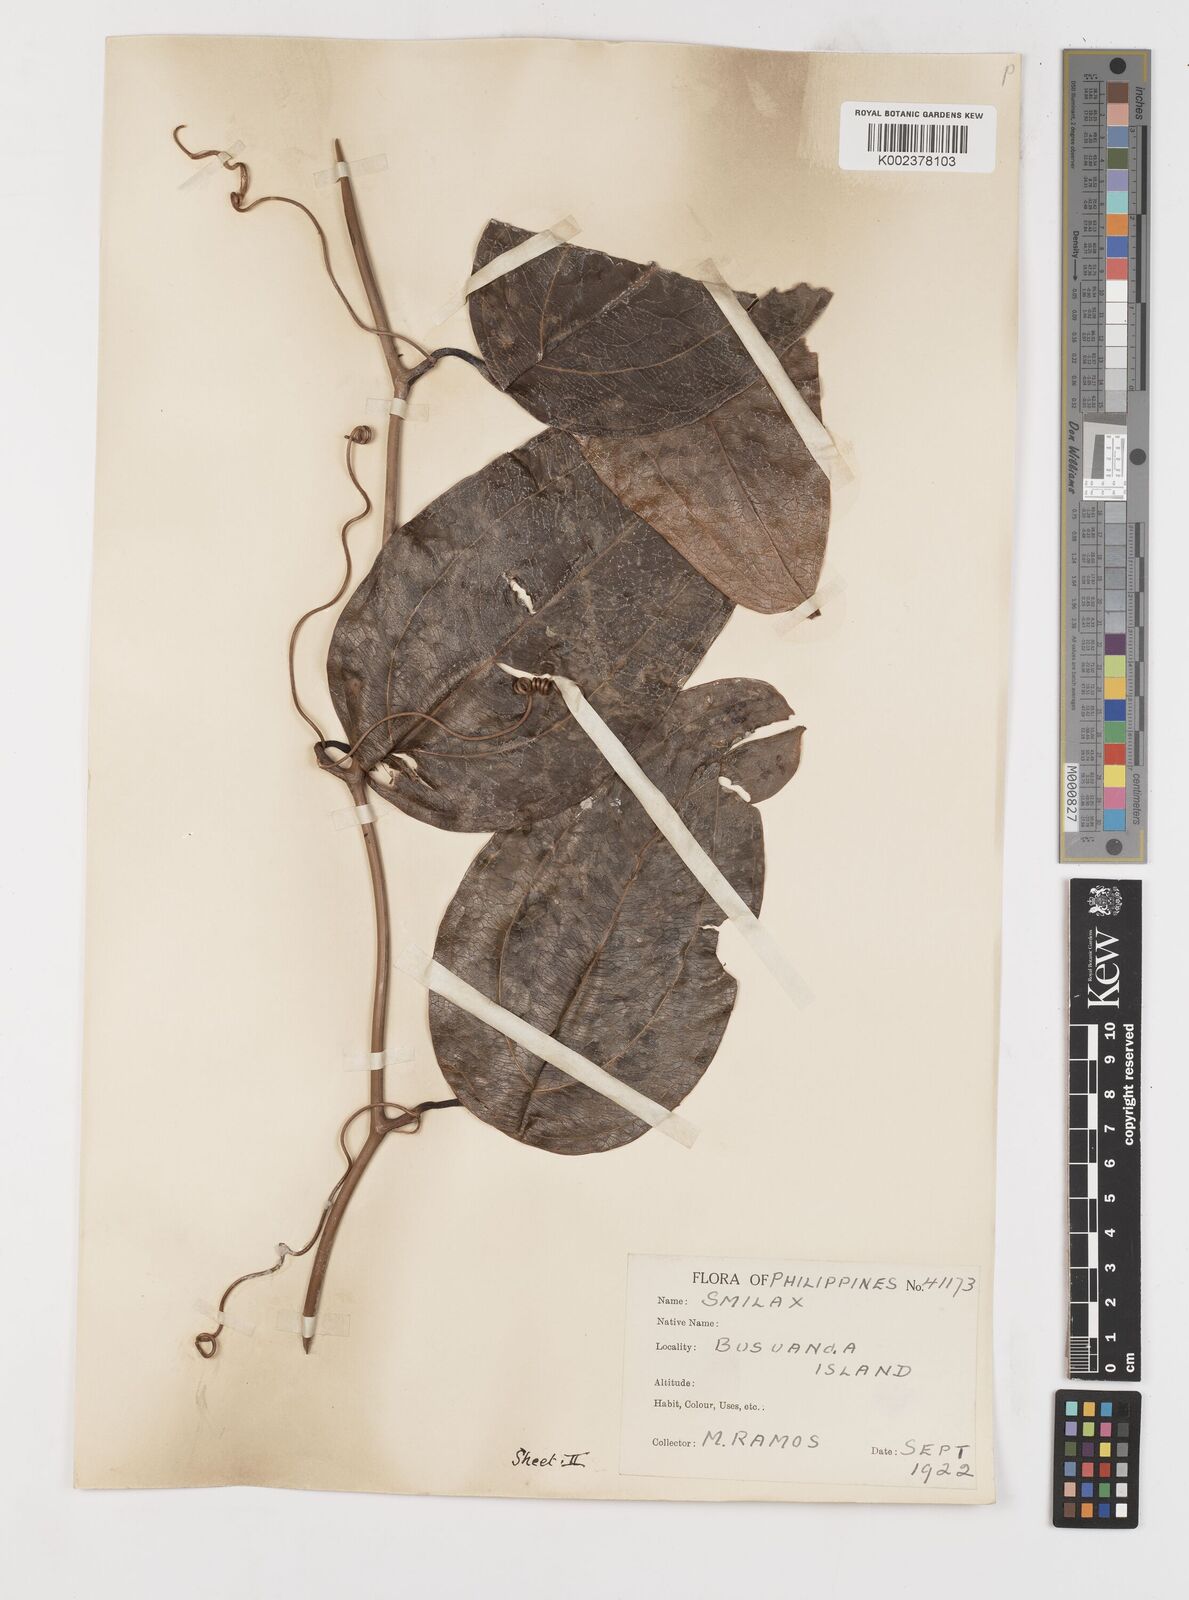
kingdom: Plantae
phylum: Tracheophyta
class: Liliopsida
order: Liliales
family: Smilacaceae
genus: Smilax
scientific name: Smilax
